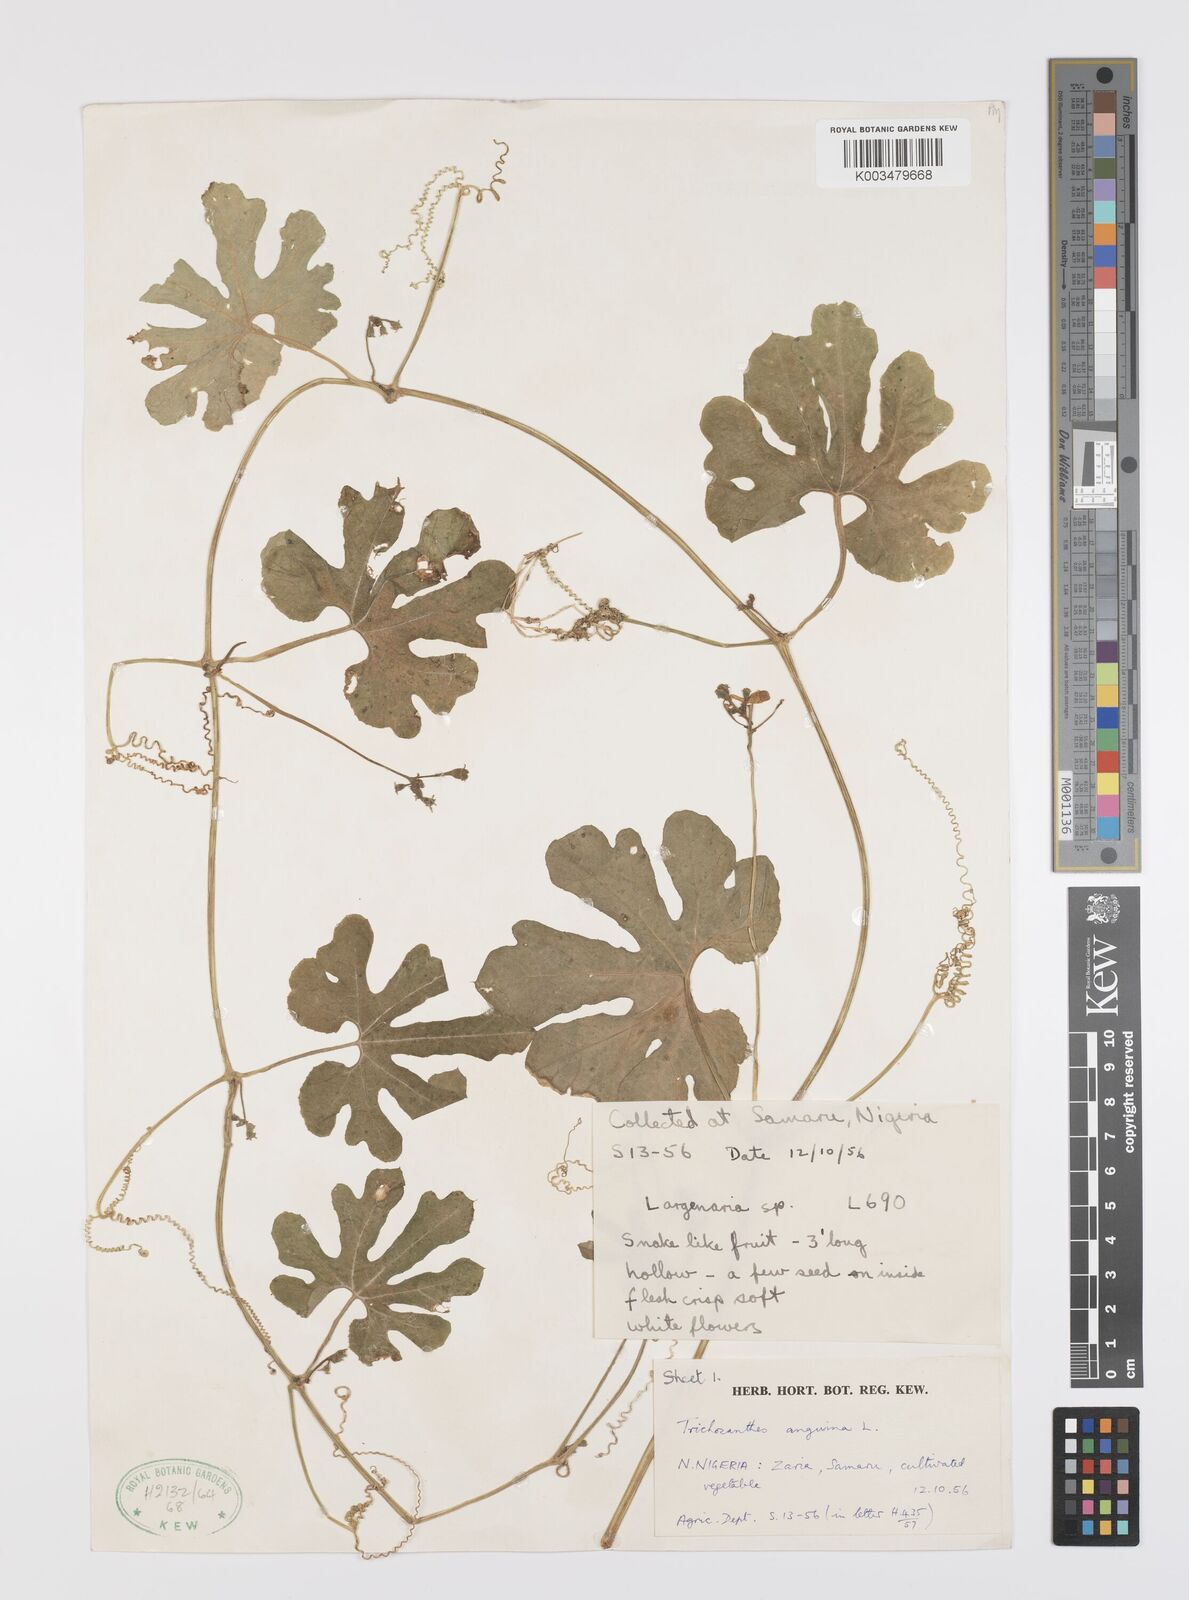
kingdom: Plantae
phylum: Tracheophyta
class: Magnoliopsida
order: Cucurbitales
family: Cucurbitaceae
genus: Trichosanthes
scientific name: Trichosanthes cucumerina
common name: Snakegourd
